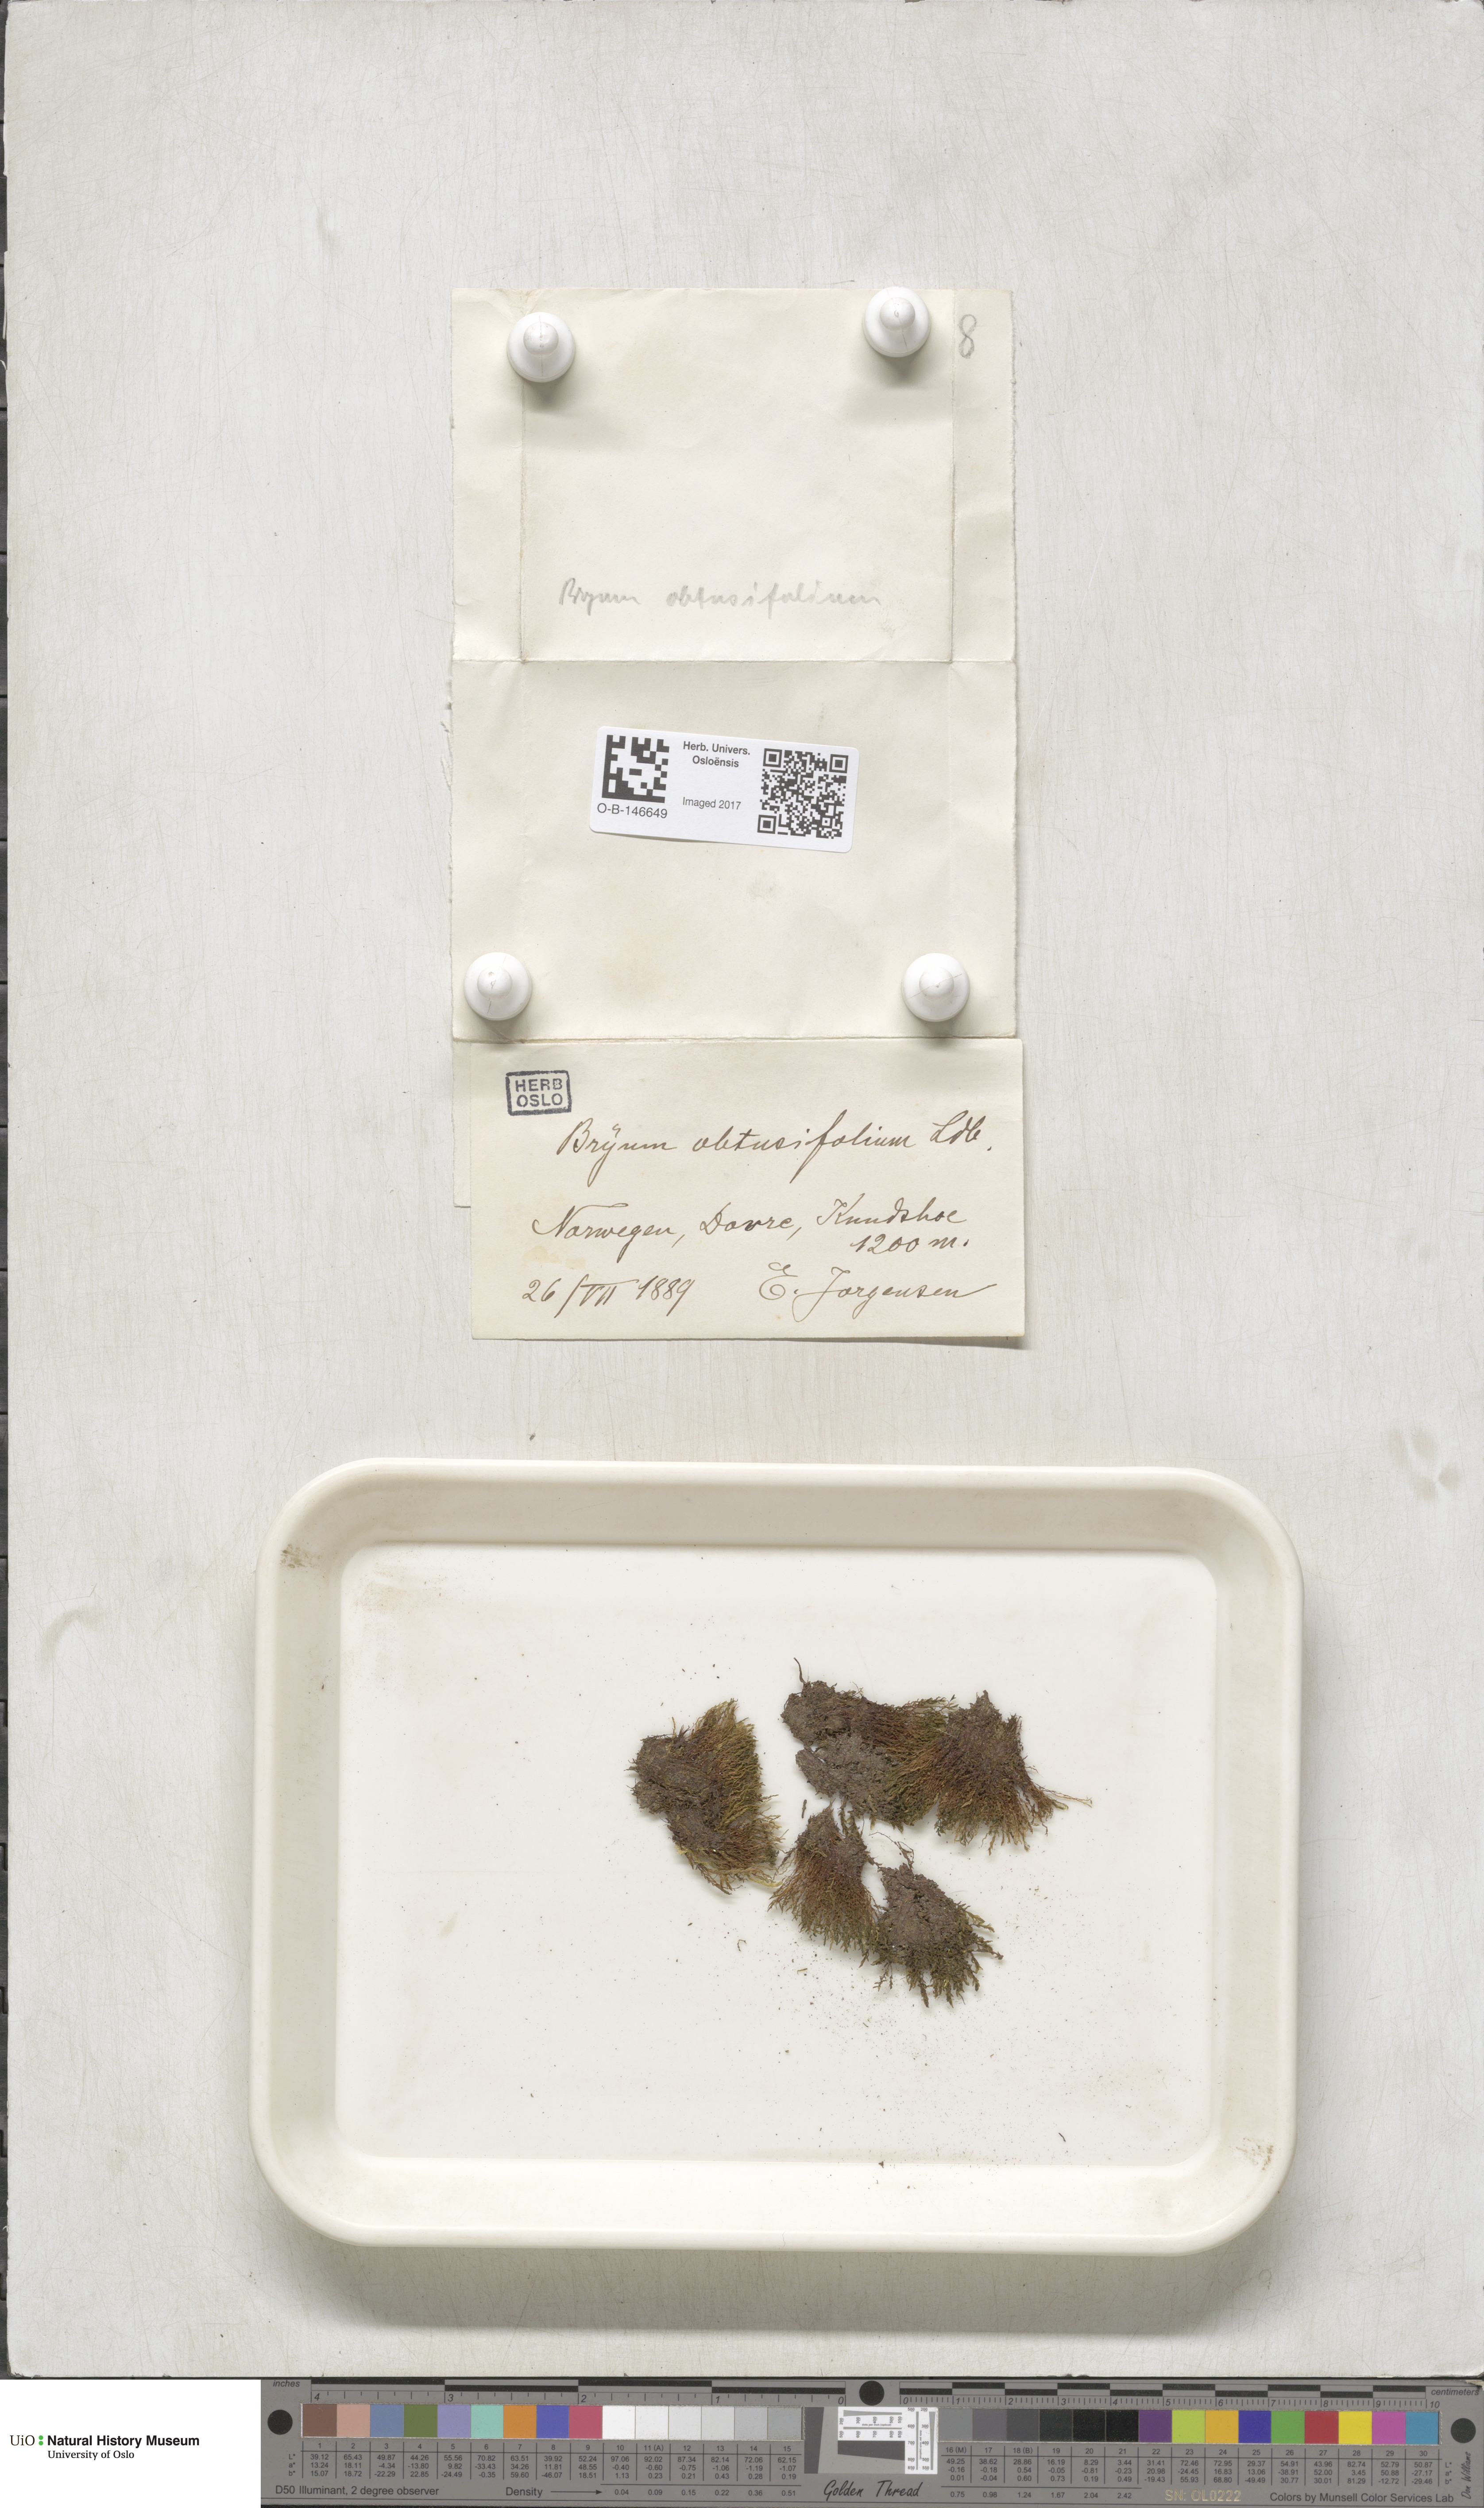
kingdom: Plantae
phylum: Bryophyta
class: Bryopsida
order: Bryales
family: Mniaceae
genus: Pohlia
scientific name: Pohlia obtusifolia
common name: Blunt nodding moss
